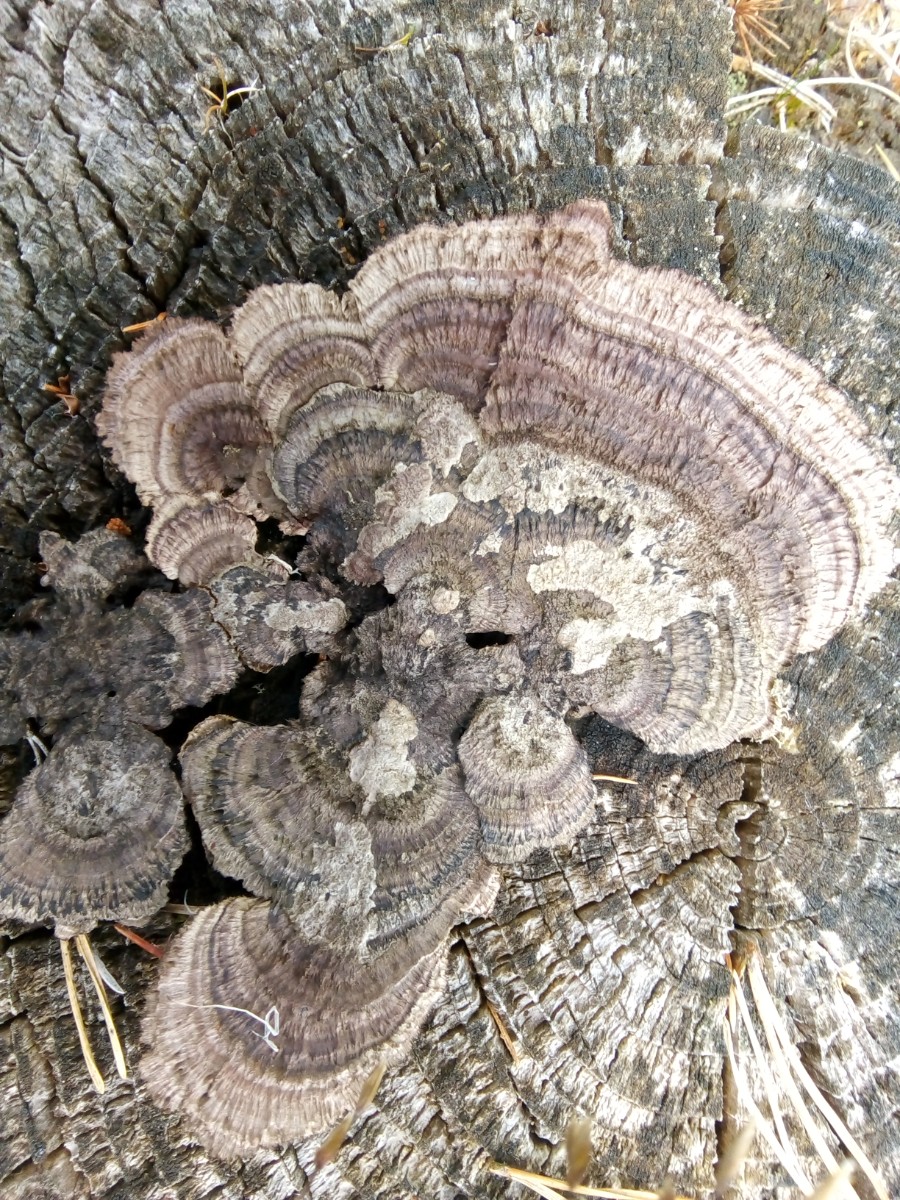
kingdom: Fungi
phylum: Basidiomycota
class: Agaricomycetes
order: Gloeophyllales
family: Gloeophyllaceae
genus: Gloeophyllum
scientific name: Gloeophyllum sepiarium
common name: fyrre-korkhat
